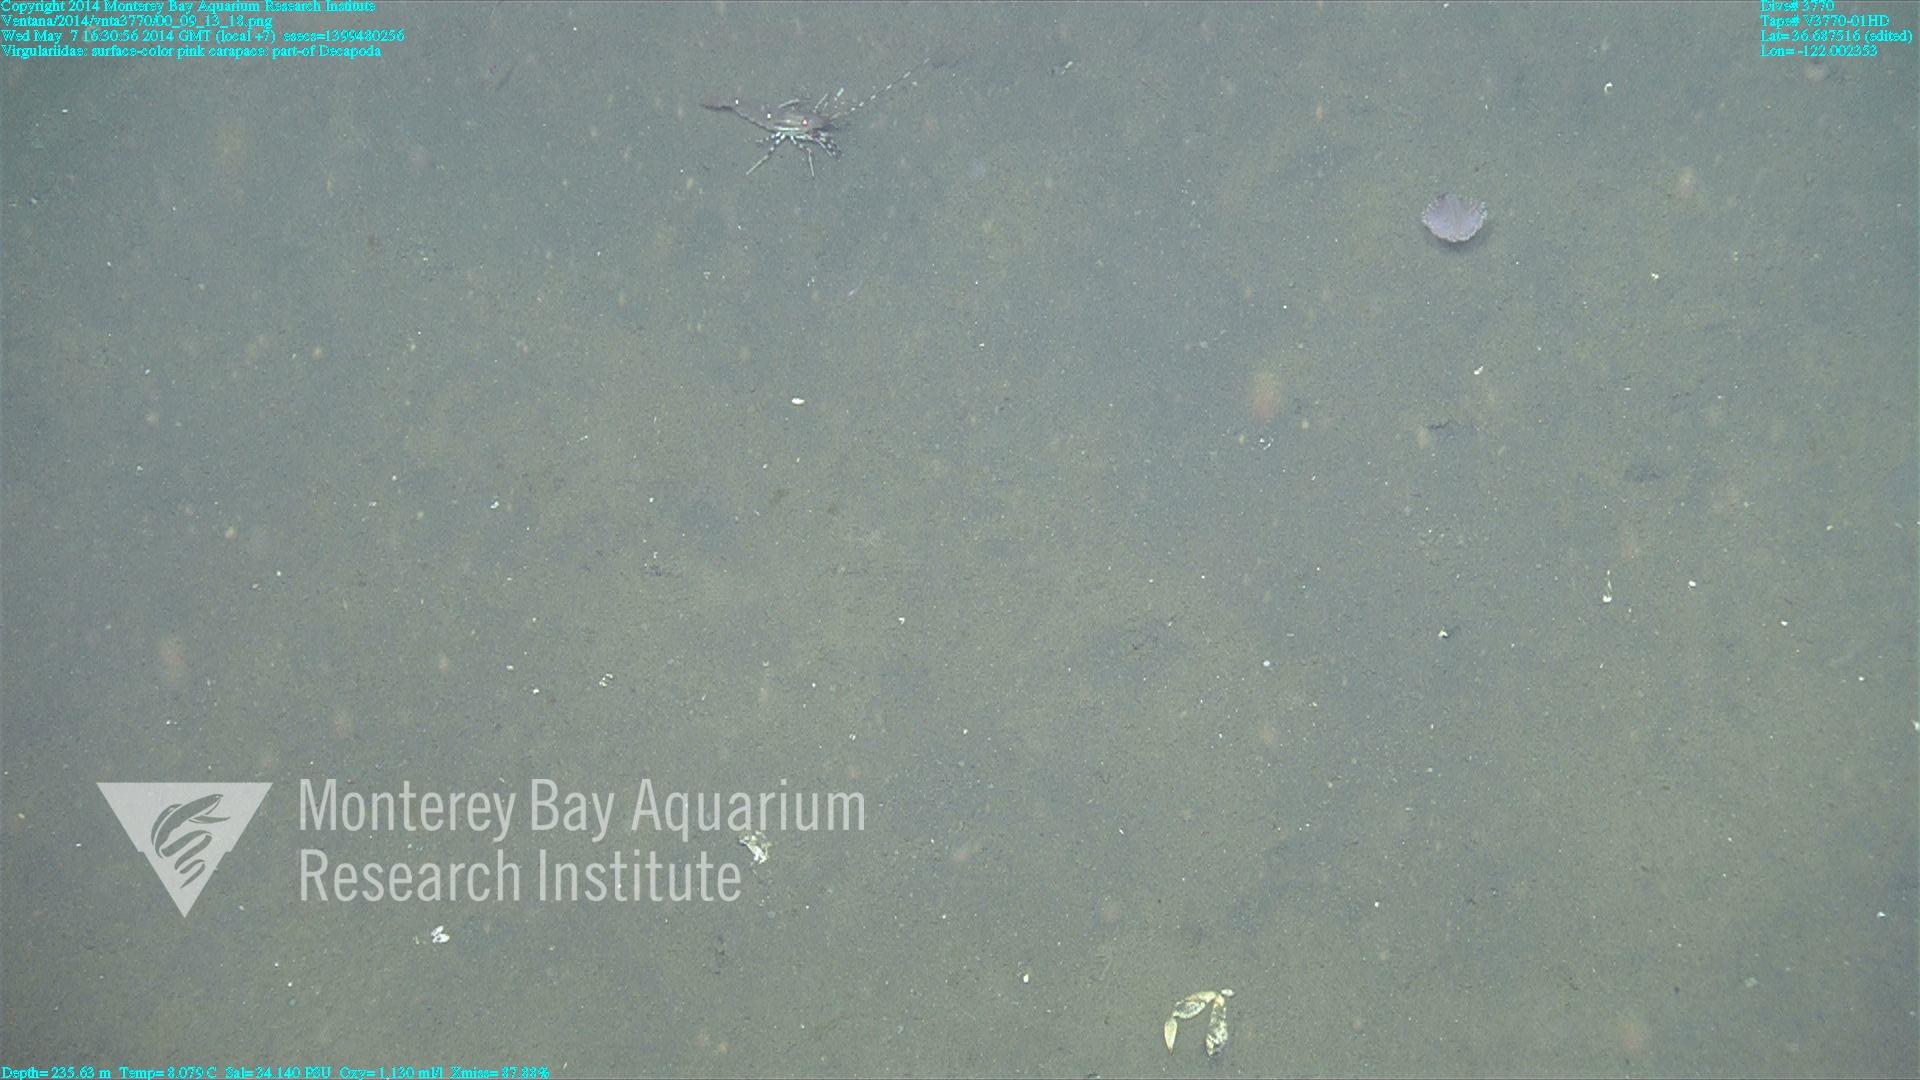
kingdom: Animalia
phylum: Cnidaria
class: Anthozoa
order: Scleralcyonacea
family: Virgulariidae
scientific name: Virgulariidae
